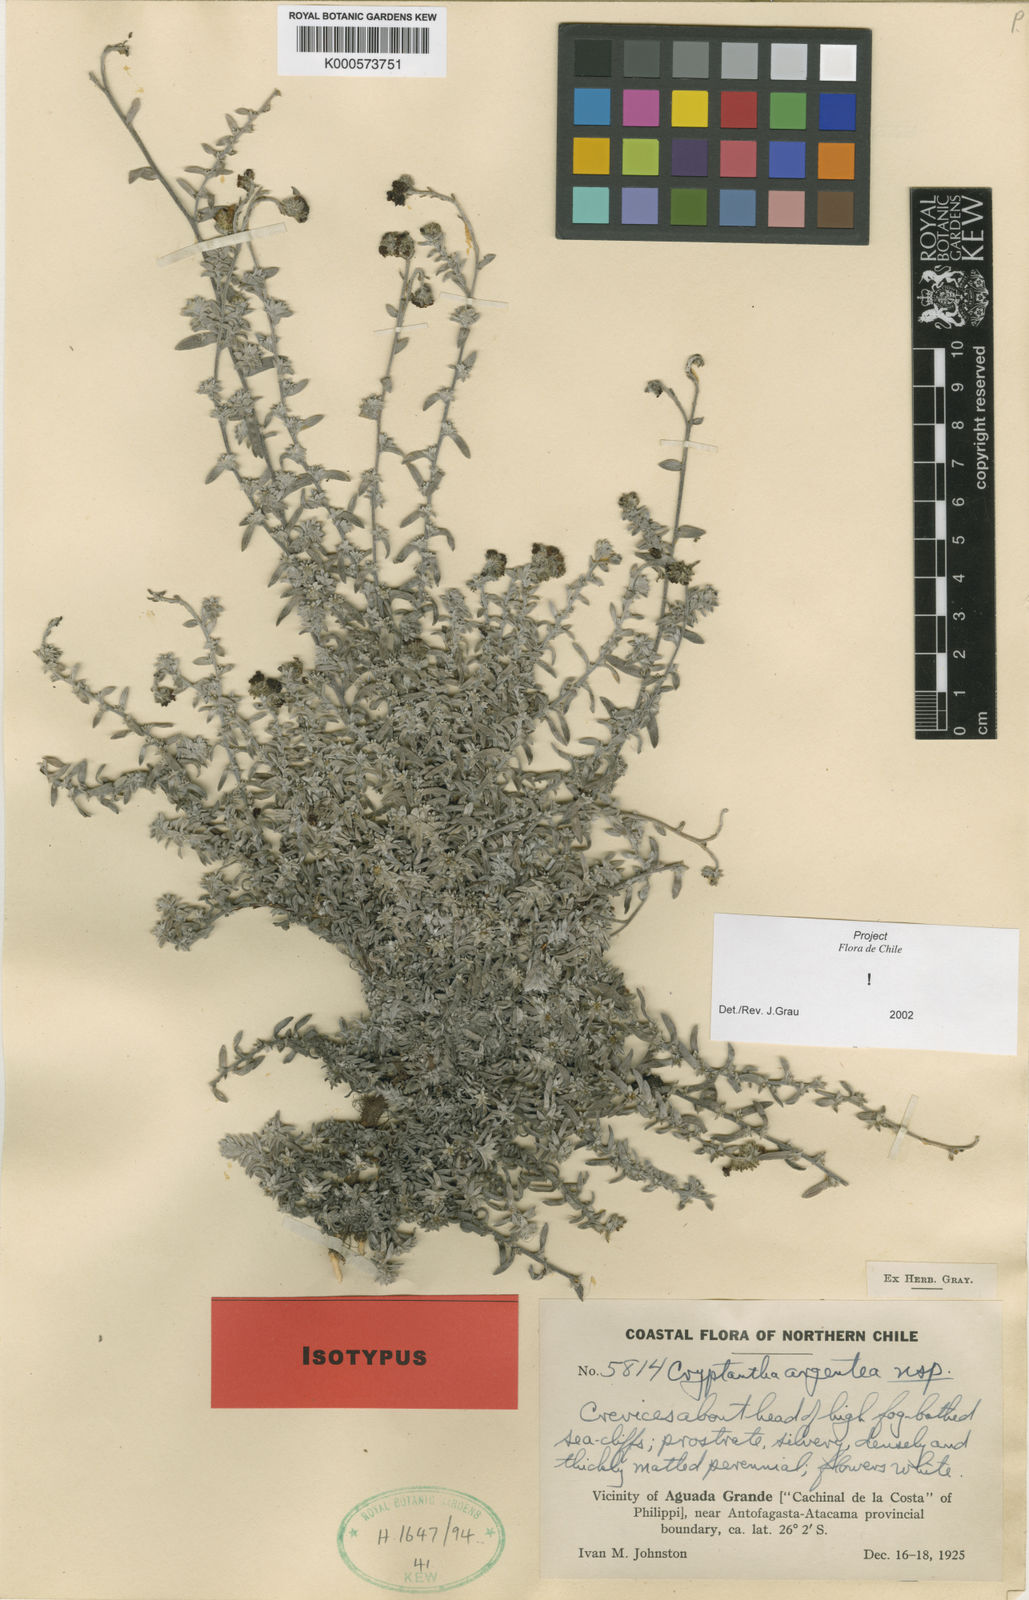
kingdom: Plantae
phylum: Tracheophyta
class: Magnoliopsida
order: Boraginales
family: Boraginaceae
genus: Cryptantha
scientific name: Cryptantha argentea
